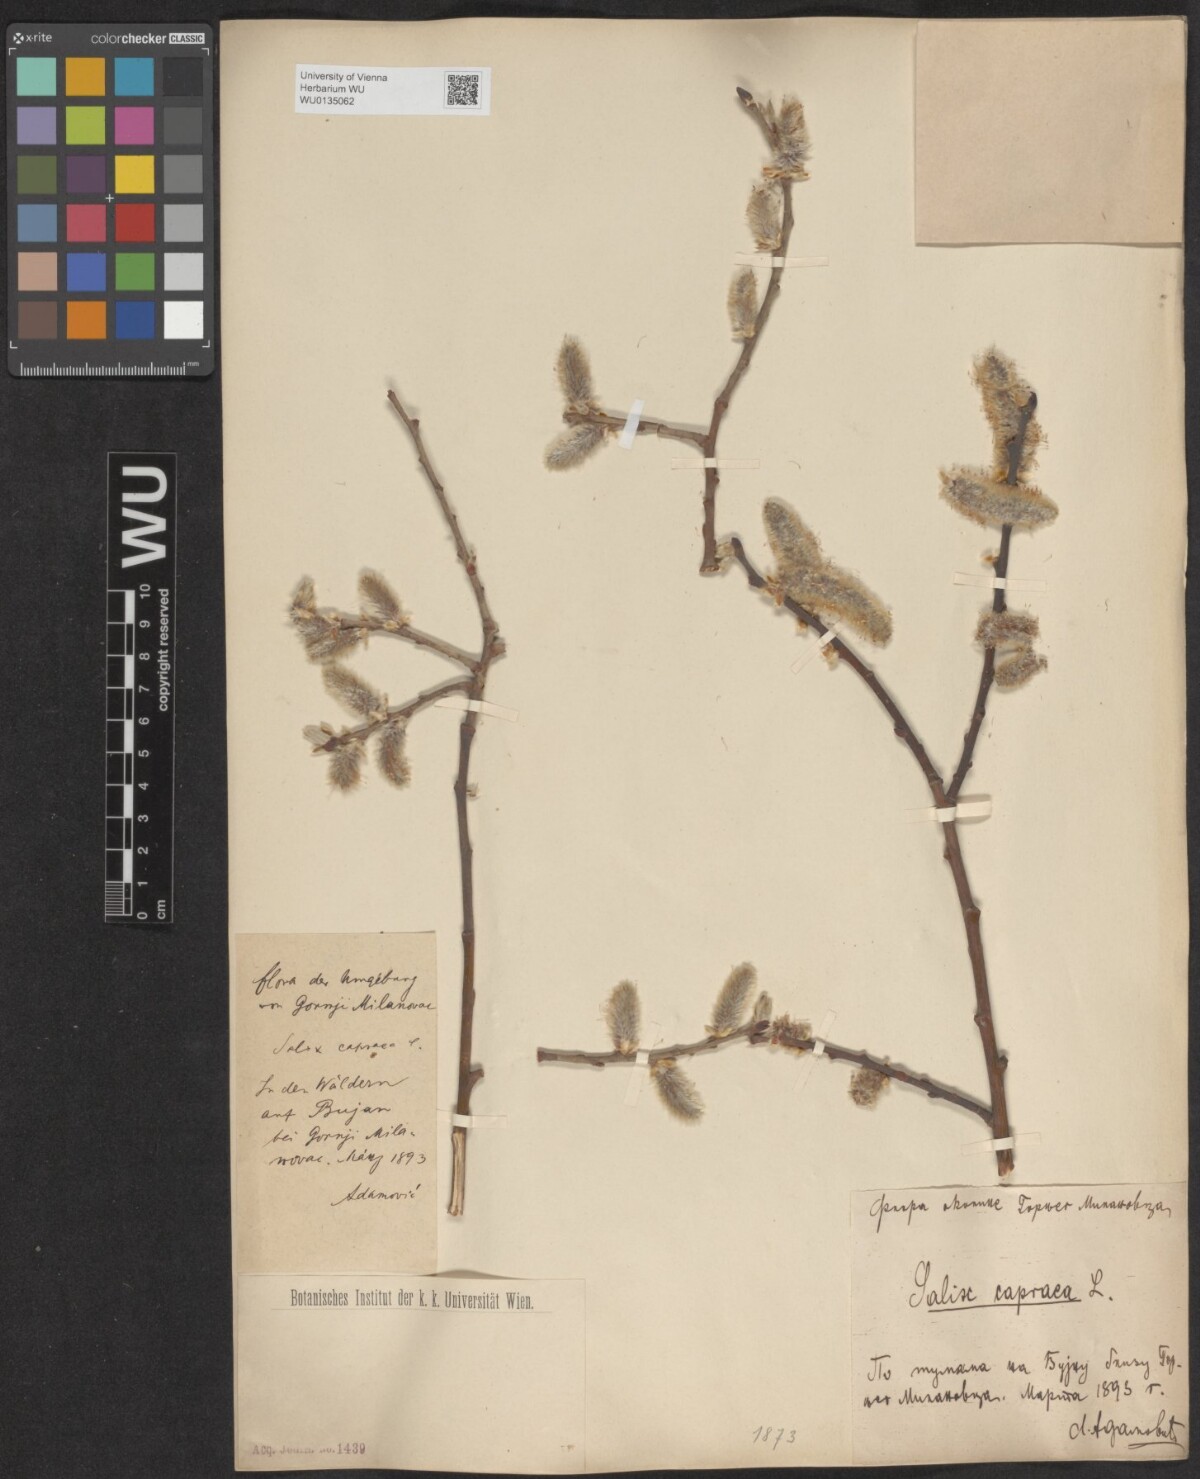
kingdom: Plantae
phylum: Tracheophyta
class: Magnoliopsida
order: Malpighiales
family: Salicaceae
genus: Salix
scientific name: Salix caprea
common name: Goat willow
